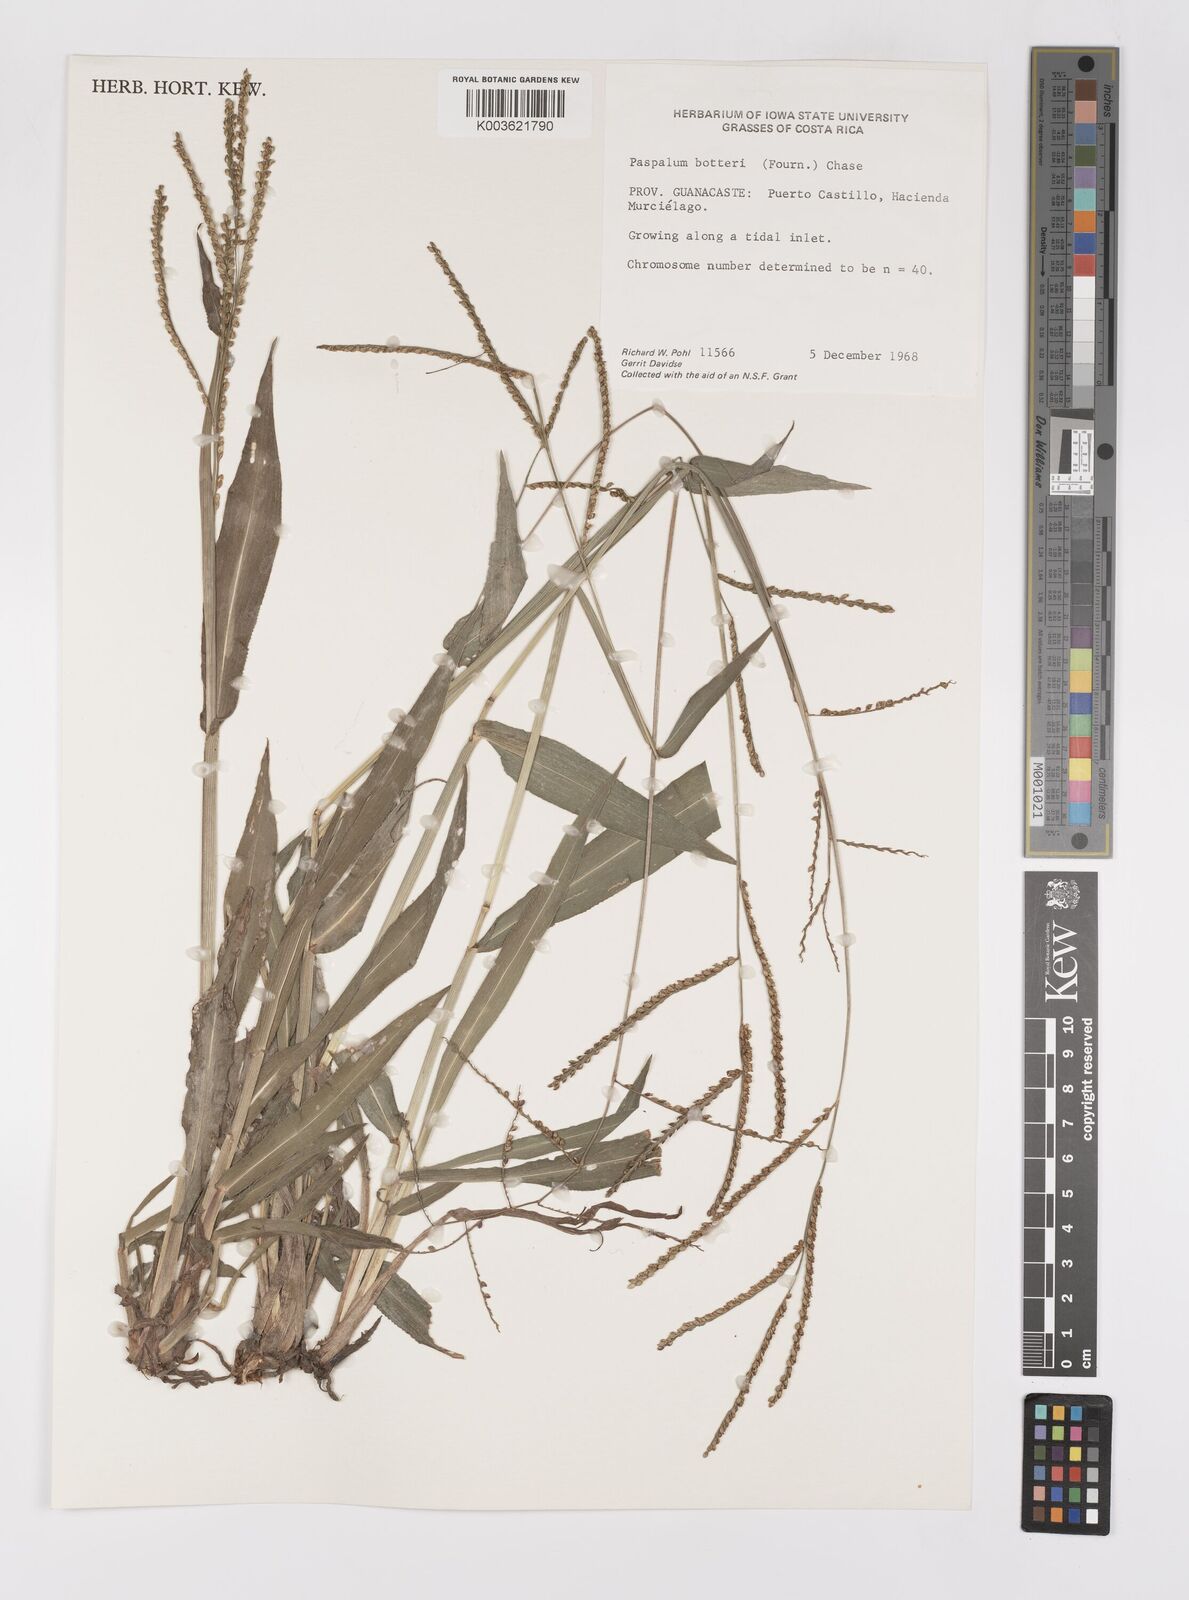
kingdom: Plantae
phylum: Tracheophyta
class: Liliopsida
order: Poales
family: Poaceae
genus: Paspalum
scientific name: Paspalum botterii
